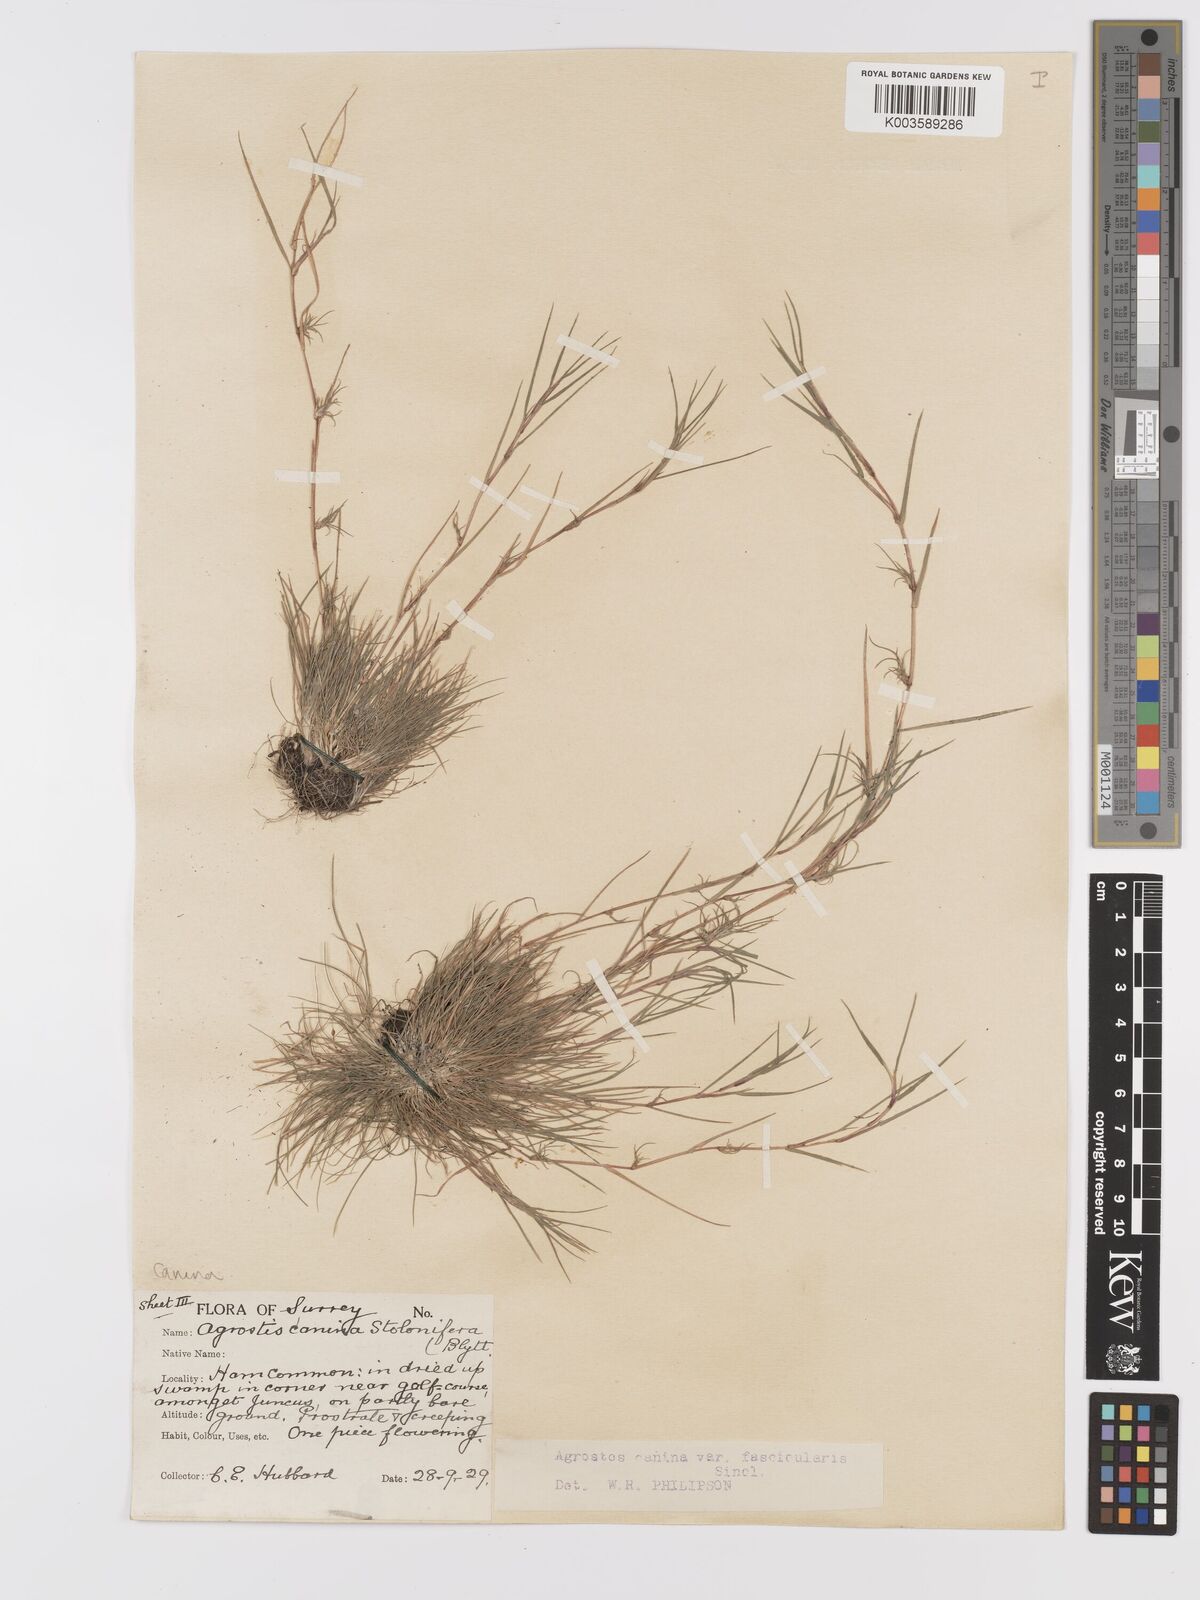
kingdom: Plantae
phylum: Tracheophyta
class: Liliopsida
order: Poales
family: Poaceae
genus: Agrostis
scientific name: Agrostis canina
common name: Velvet bent
